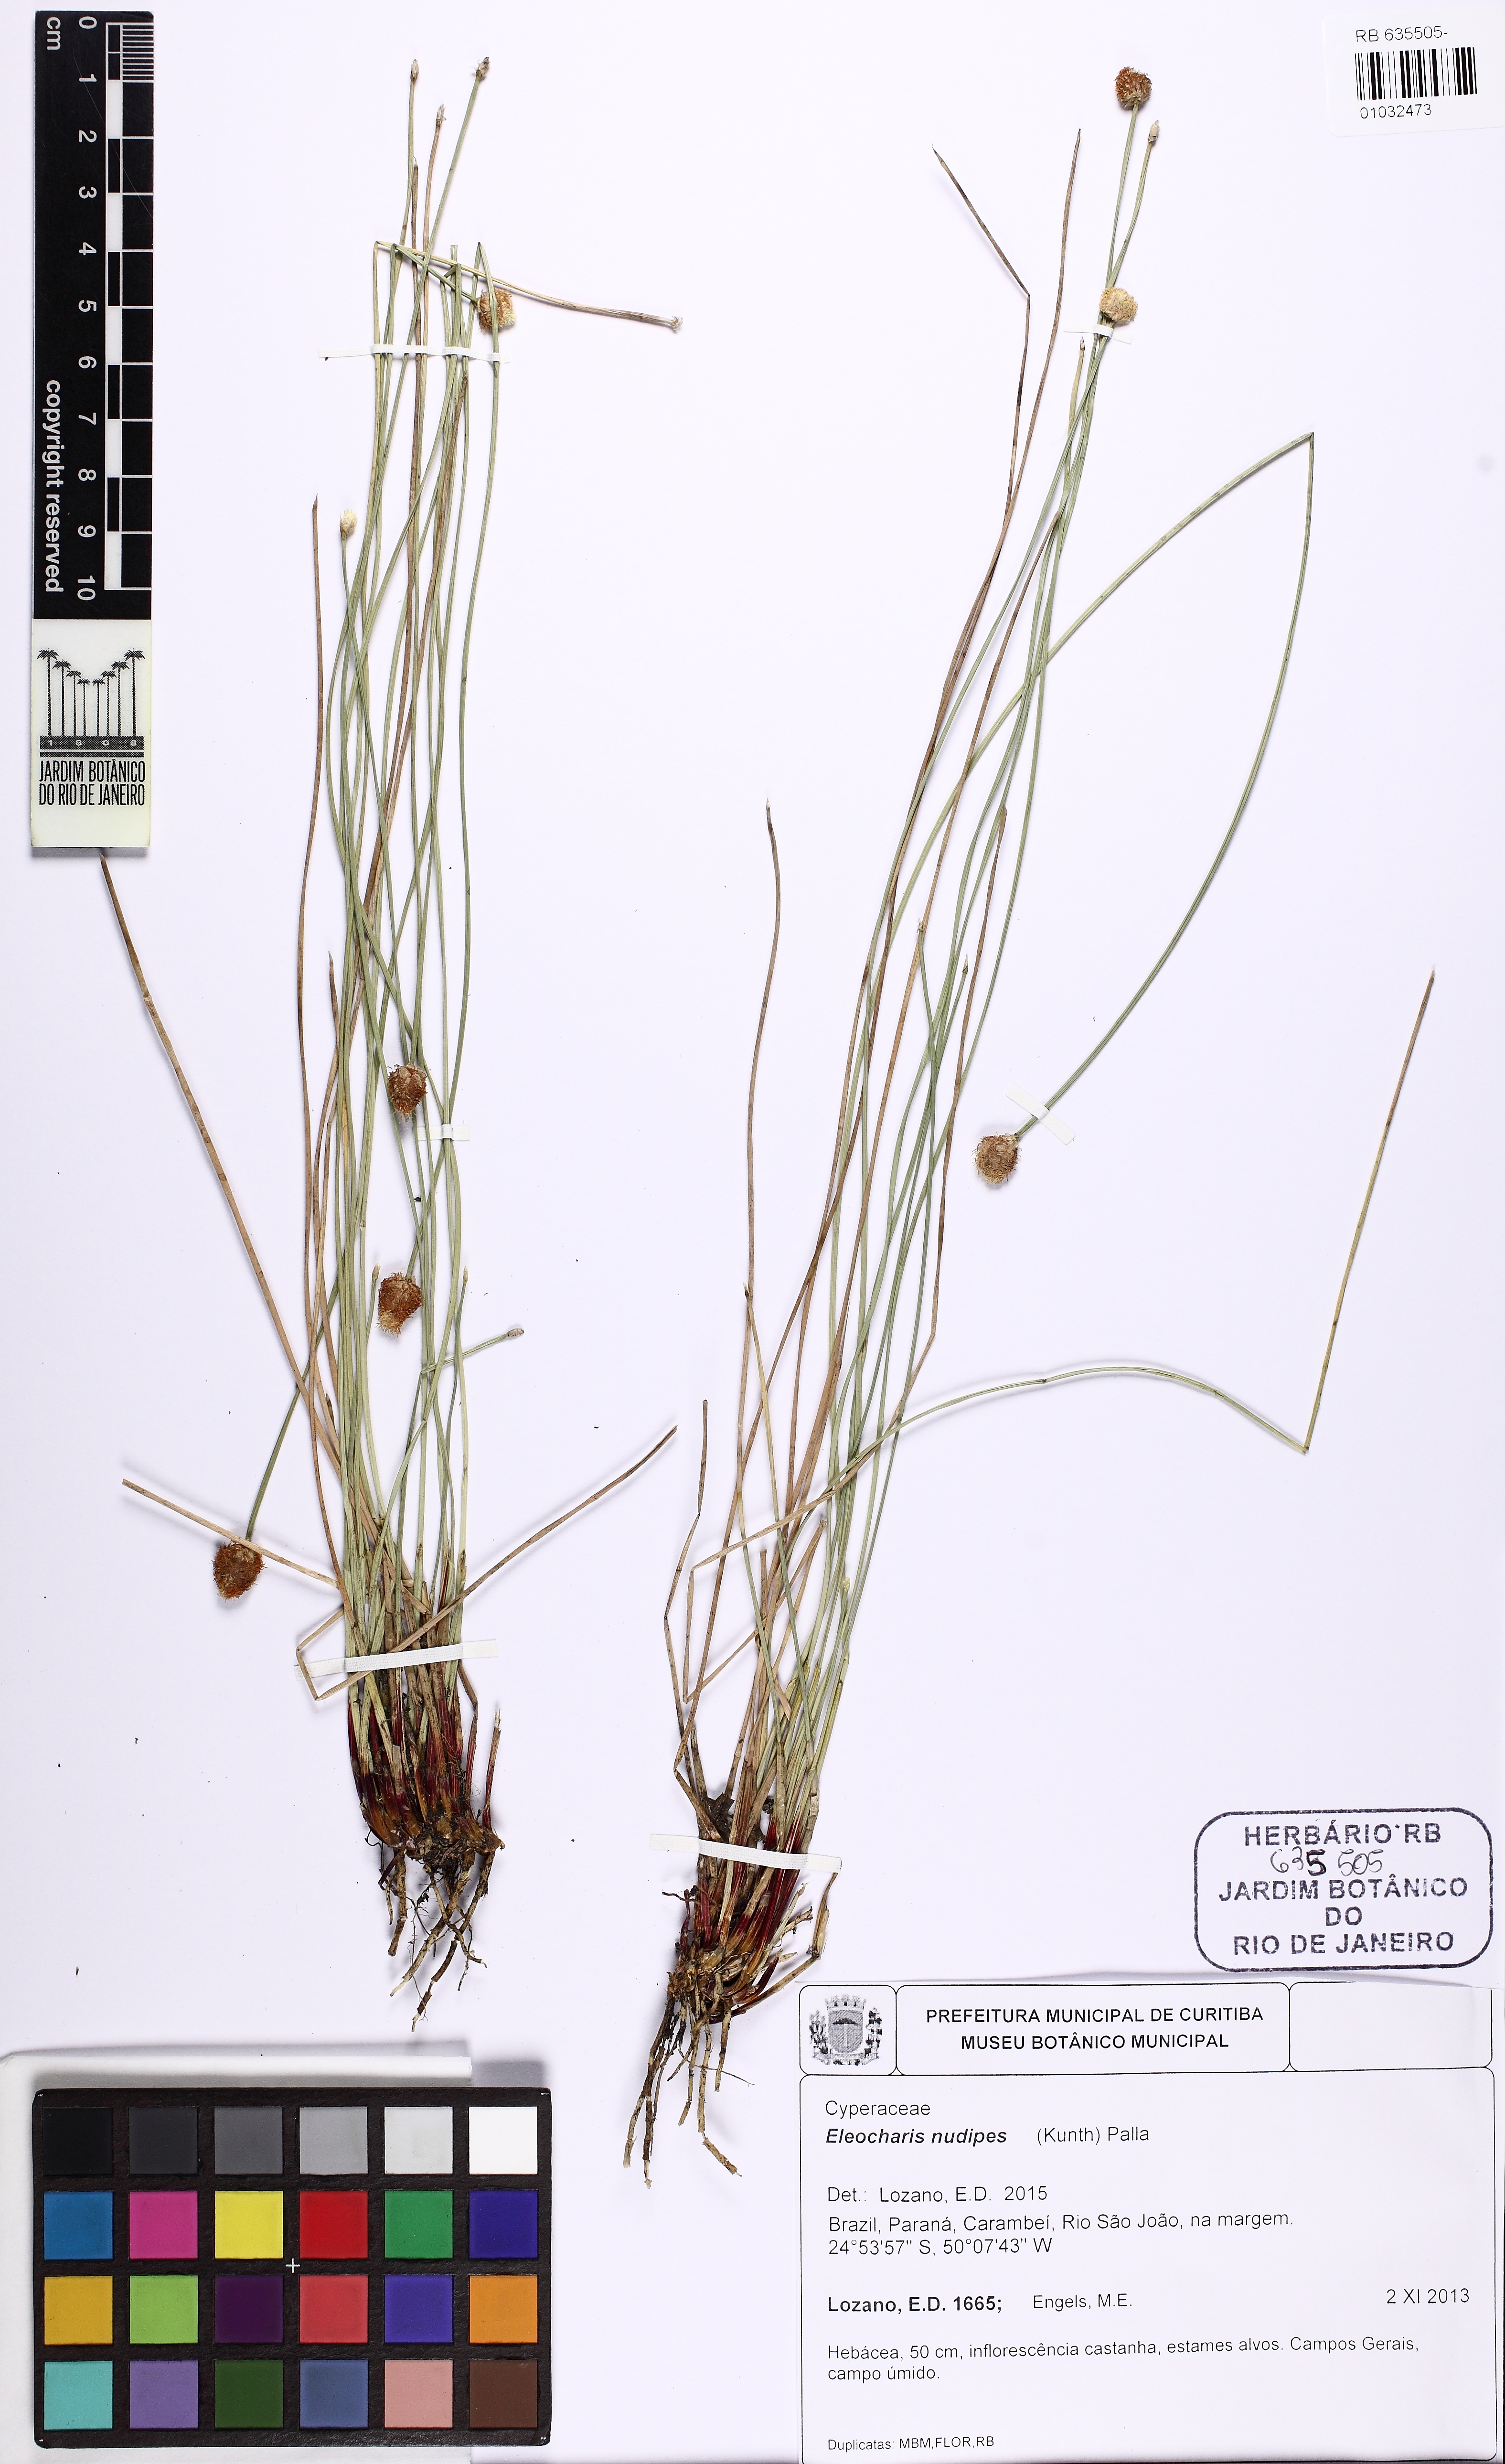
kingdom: Plantae
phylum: Tracheophyta
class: Liliopsida
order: Poales
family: Cyperaceae
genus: Eleocharis
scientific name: Eleocharis nudipes
